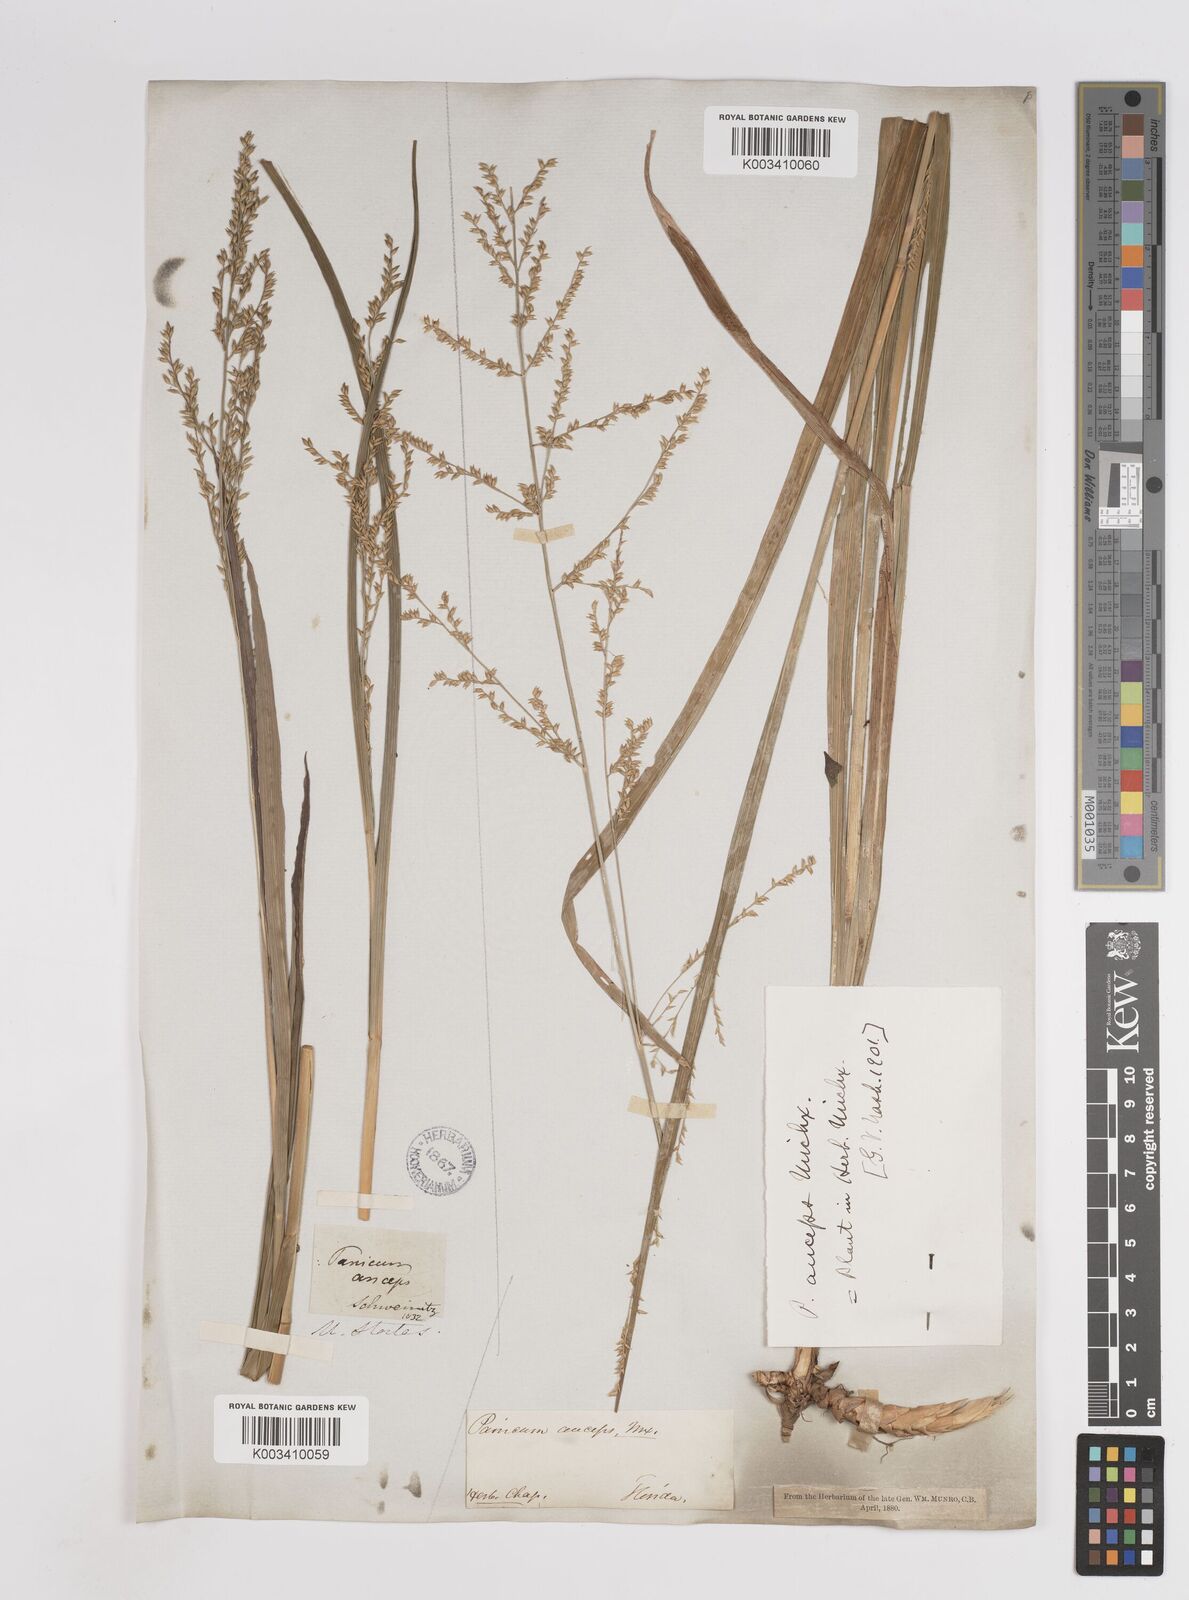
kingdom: Plantae
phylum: Tracheophyta
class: Liliopsida
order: Poales
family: Poaceae
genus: Coleataenia
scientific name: Coleataenia anceps
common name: Beaked panic grass
